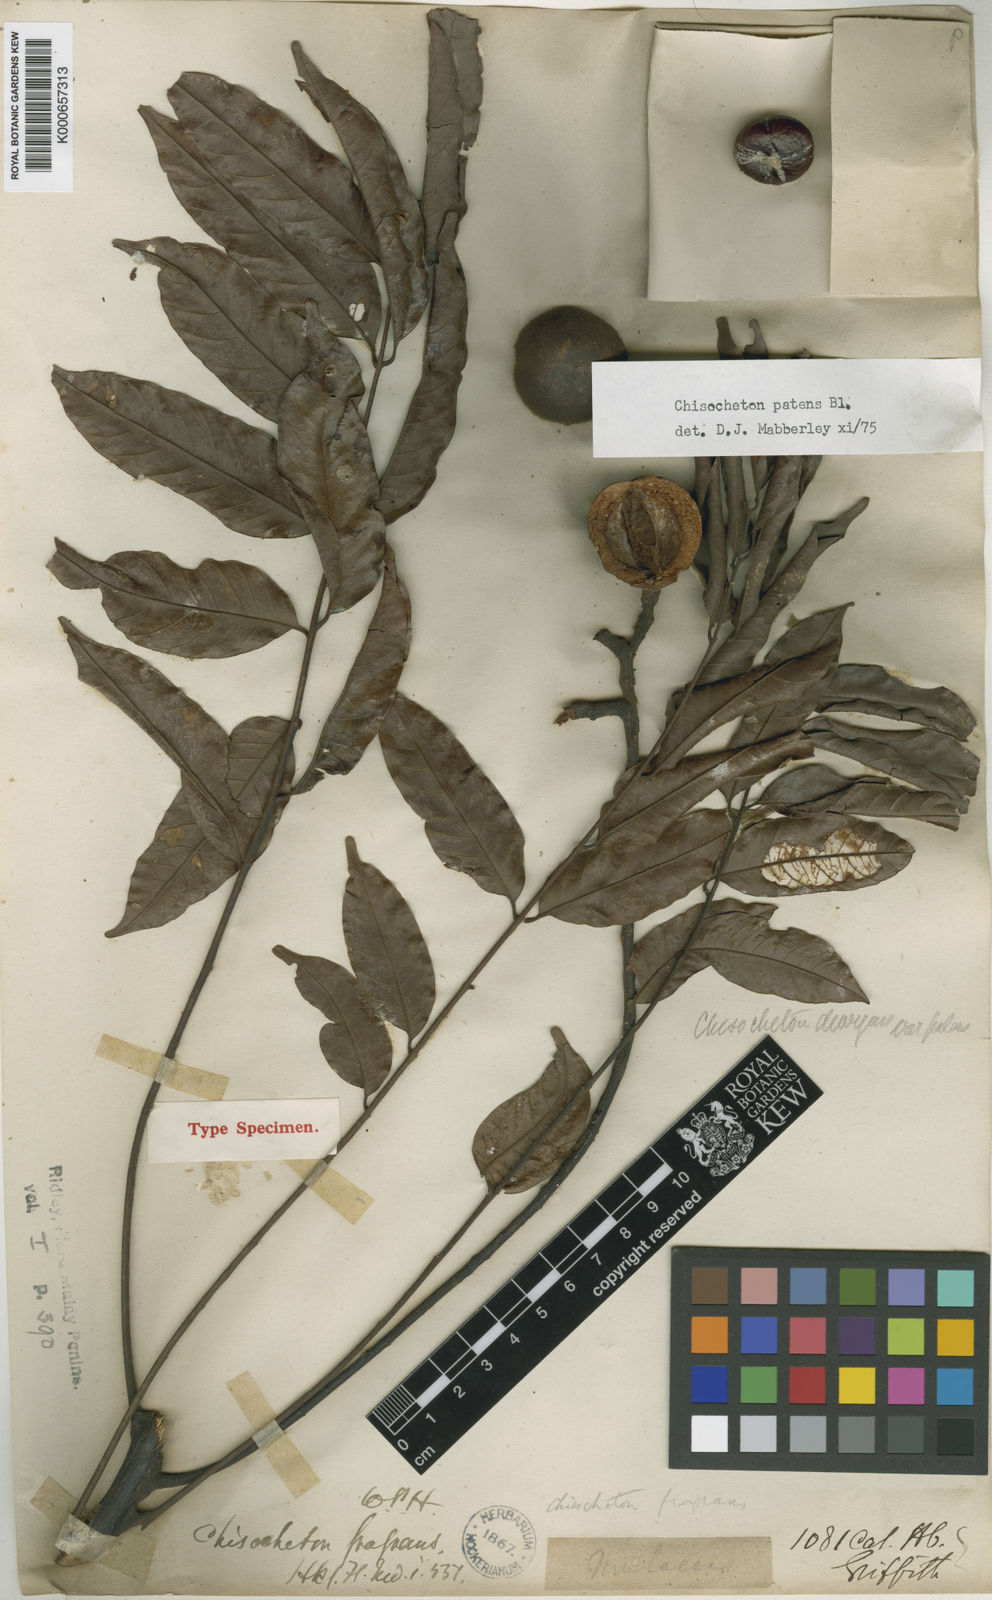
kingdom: Plantae
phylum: Tracheophyta
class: Magnoliopsida
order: Sapindales
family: Meliaceae
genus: Chisocheton
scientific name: Chisocheton patens
